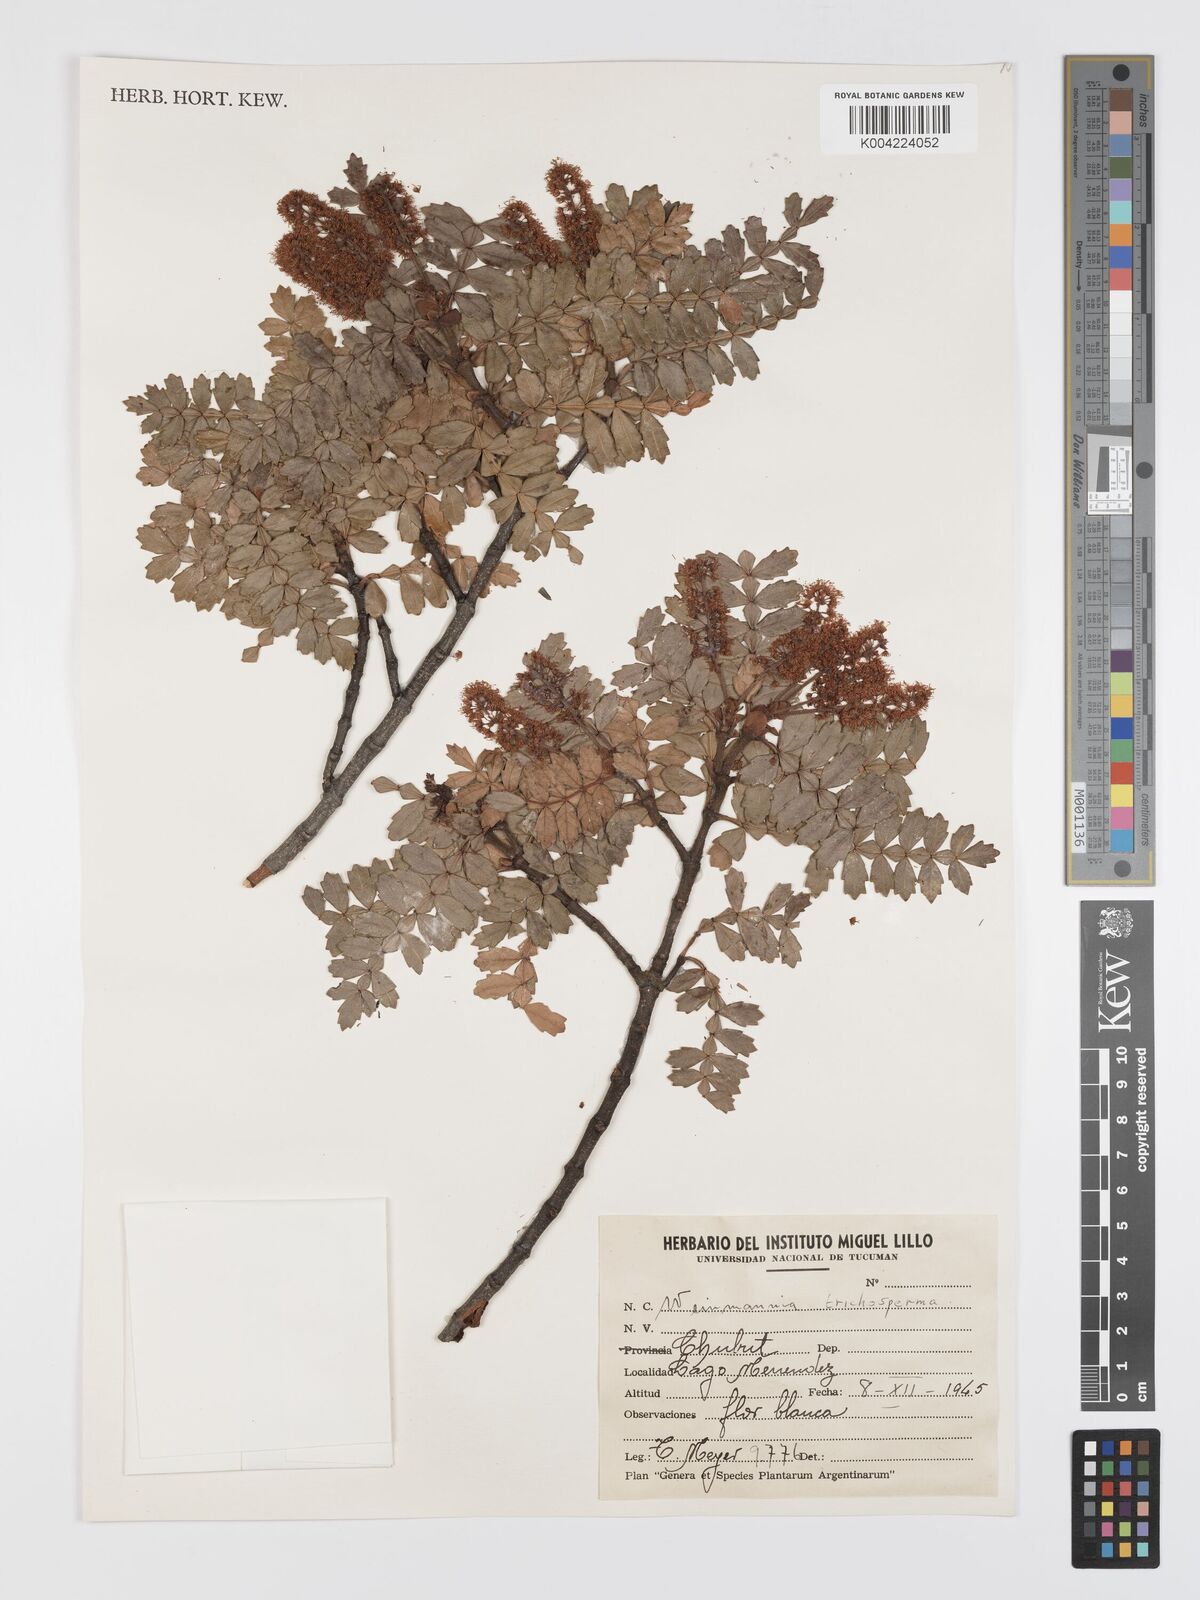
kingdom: Plantae
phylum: Tracheophyta
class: Magnoliopsida
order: Oxalidales
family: Cunoniaceae
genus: Weinmannia
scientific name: Weinmannia trichosperma
